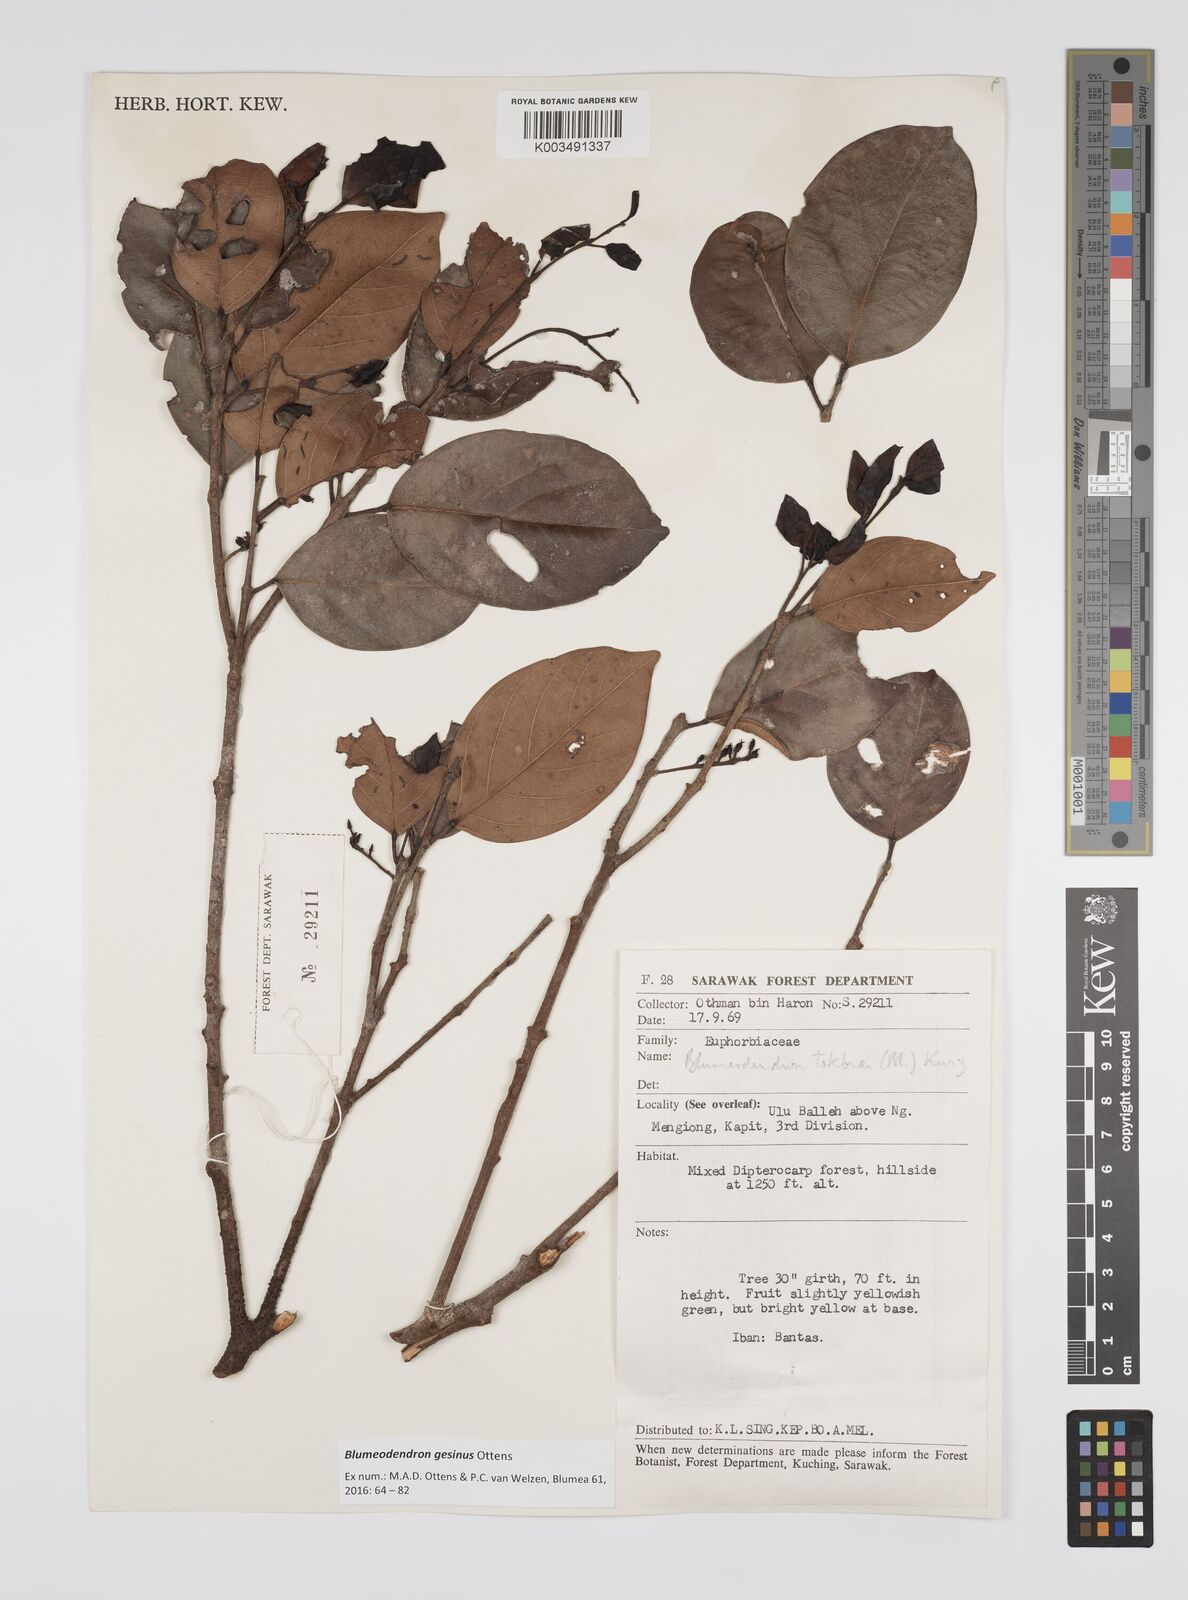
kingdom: Plantae
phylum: Tracheophyta
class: Magnoliopsida
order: Malpighiales
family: Euphorbiaceae
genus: Blumeodendron
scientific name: Blumeodendron gesinus
